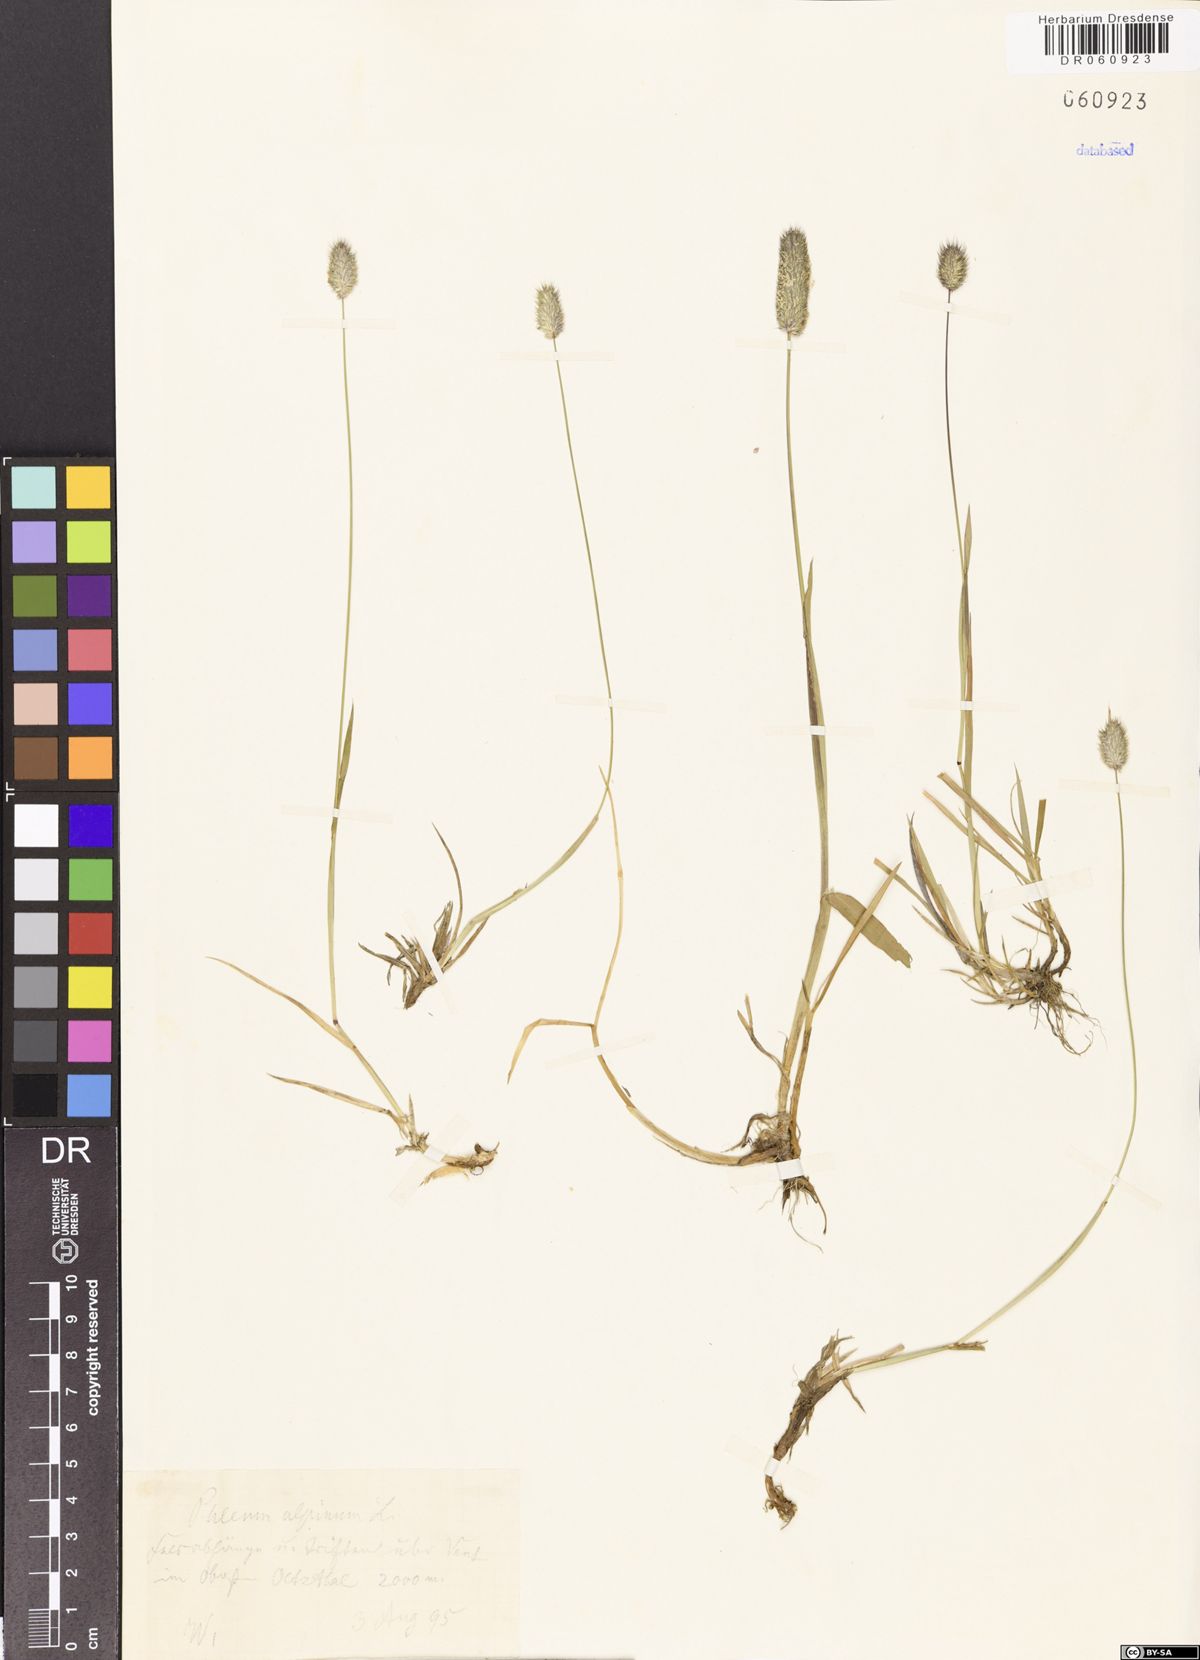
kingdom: Plantae
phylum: Tracheophyta
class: Liliopsida
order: Poales
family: Poaceae
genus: Phleum
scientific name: Phleum alpinum
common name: Alpine cat's-tail
